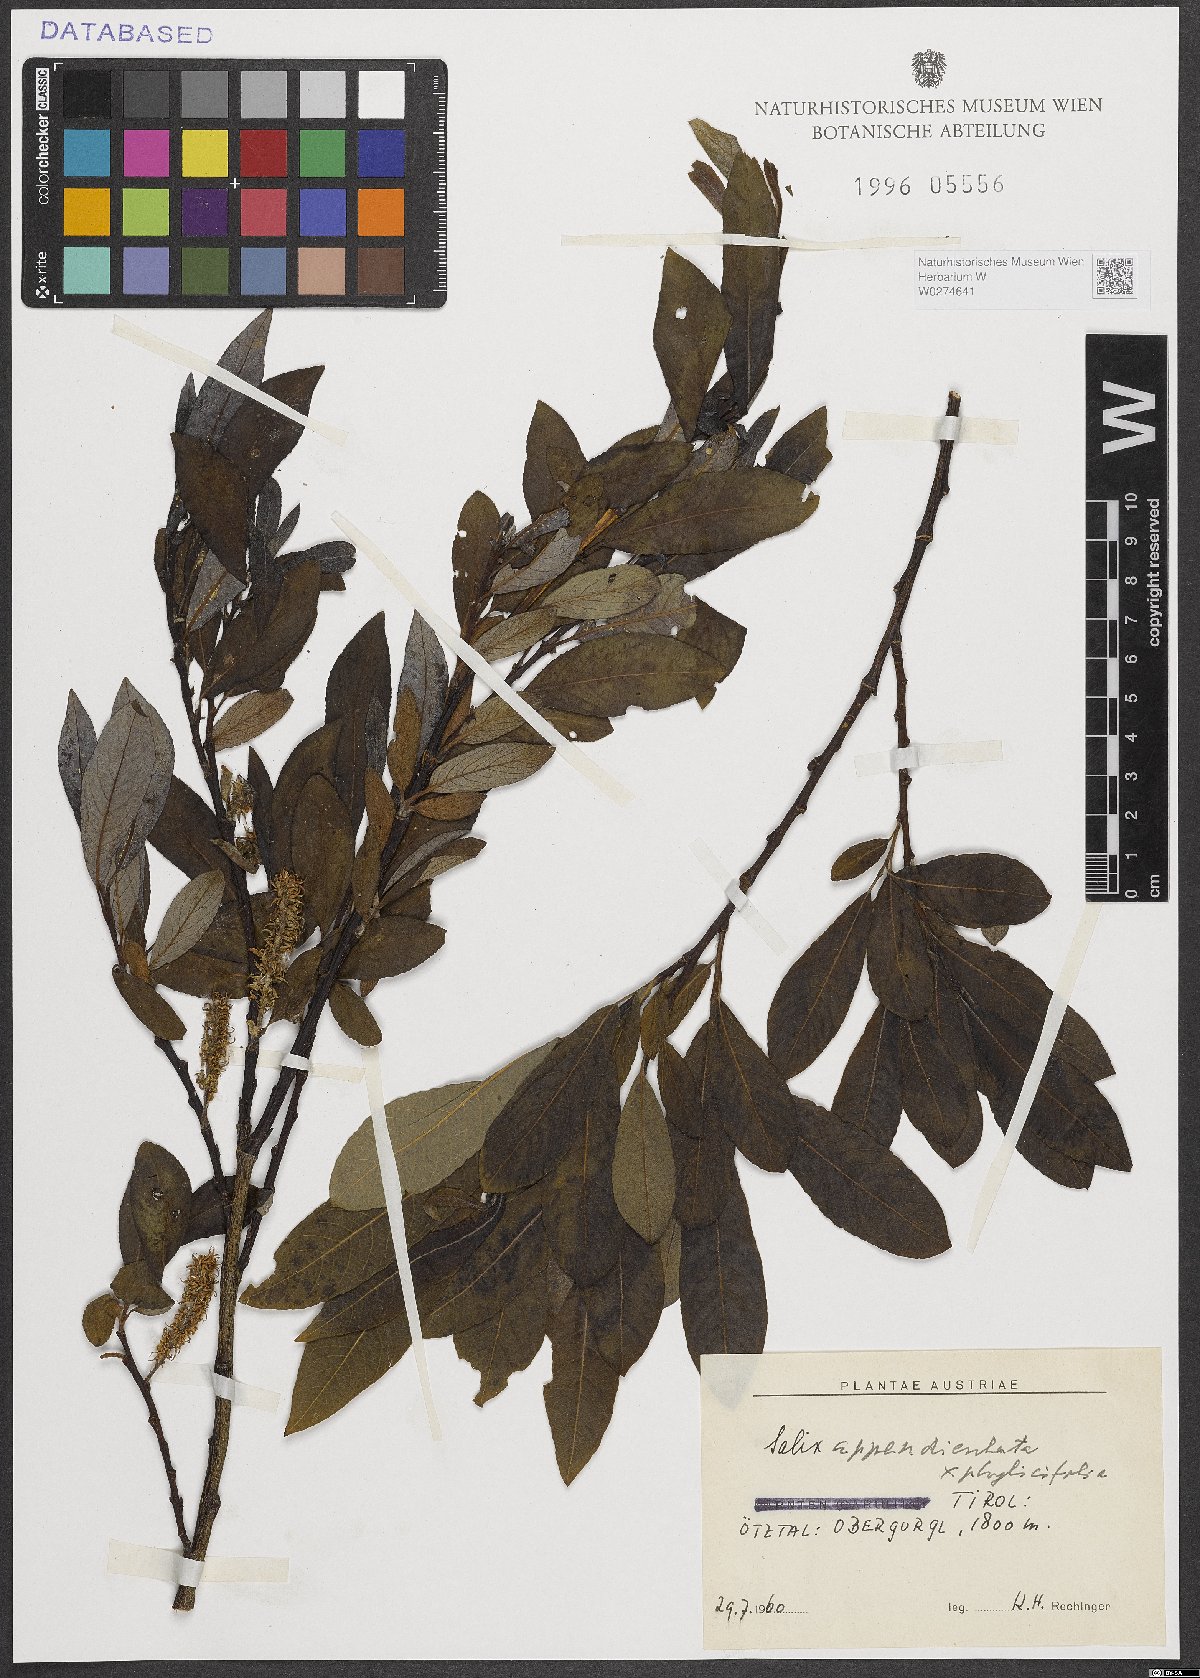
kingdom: Plantae
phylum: Tracheophyta
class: Magnoliopsida
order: Malpighiales
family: Salicaceae
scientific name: Salicaceae
